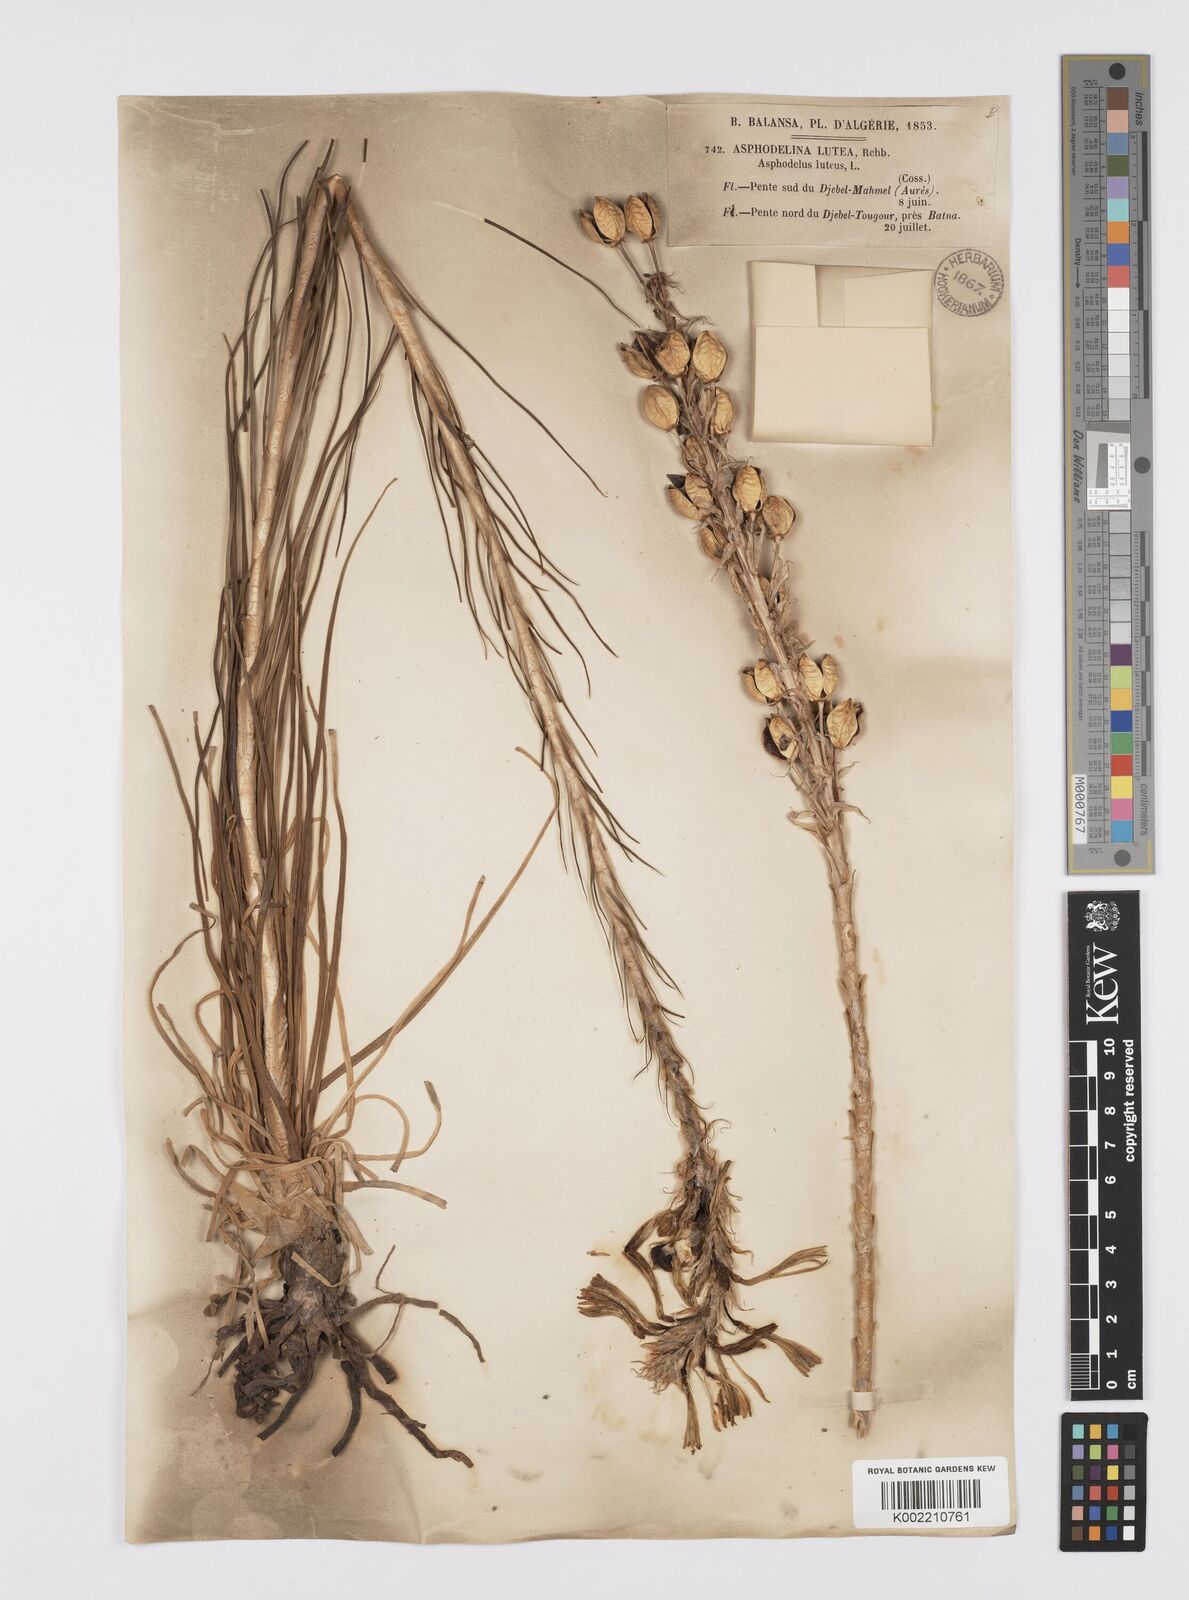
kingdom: Plantae
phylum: Tracheophyta
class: Liliopsida
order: Asparagales
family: Asphodelaceae
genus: Asphodeline
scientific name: Asphodeline lutea
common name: Yellow asphodel
